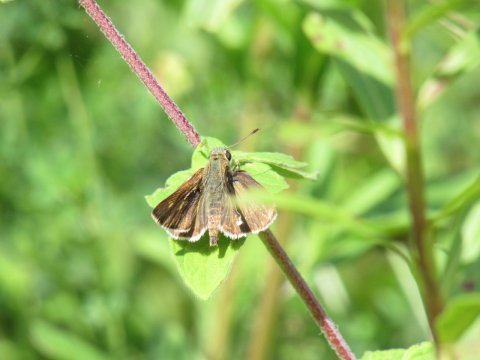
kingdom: Animalia
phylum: Arthropoda
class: Insecta
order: Lepidoptera
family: Hesperiidae
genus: Polites
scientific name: Polites egeremet
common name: Northern Broken-Dash
